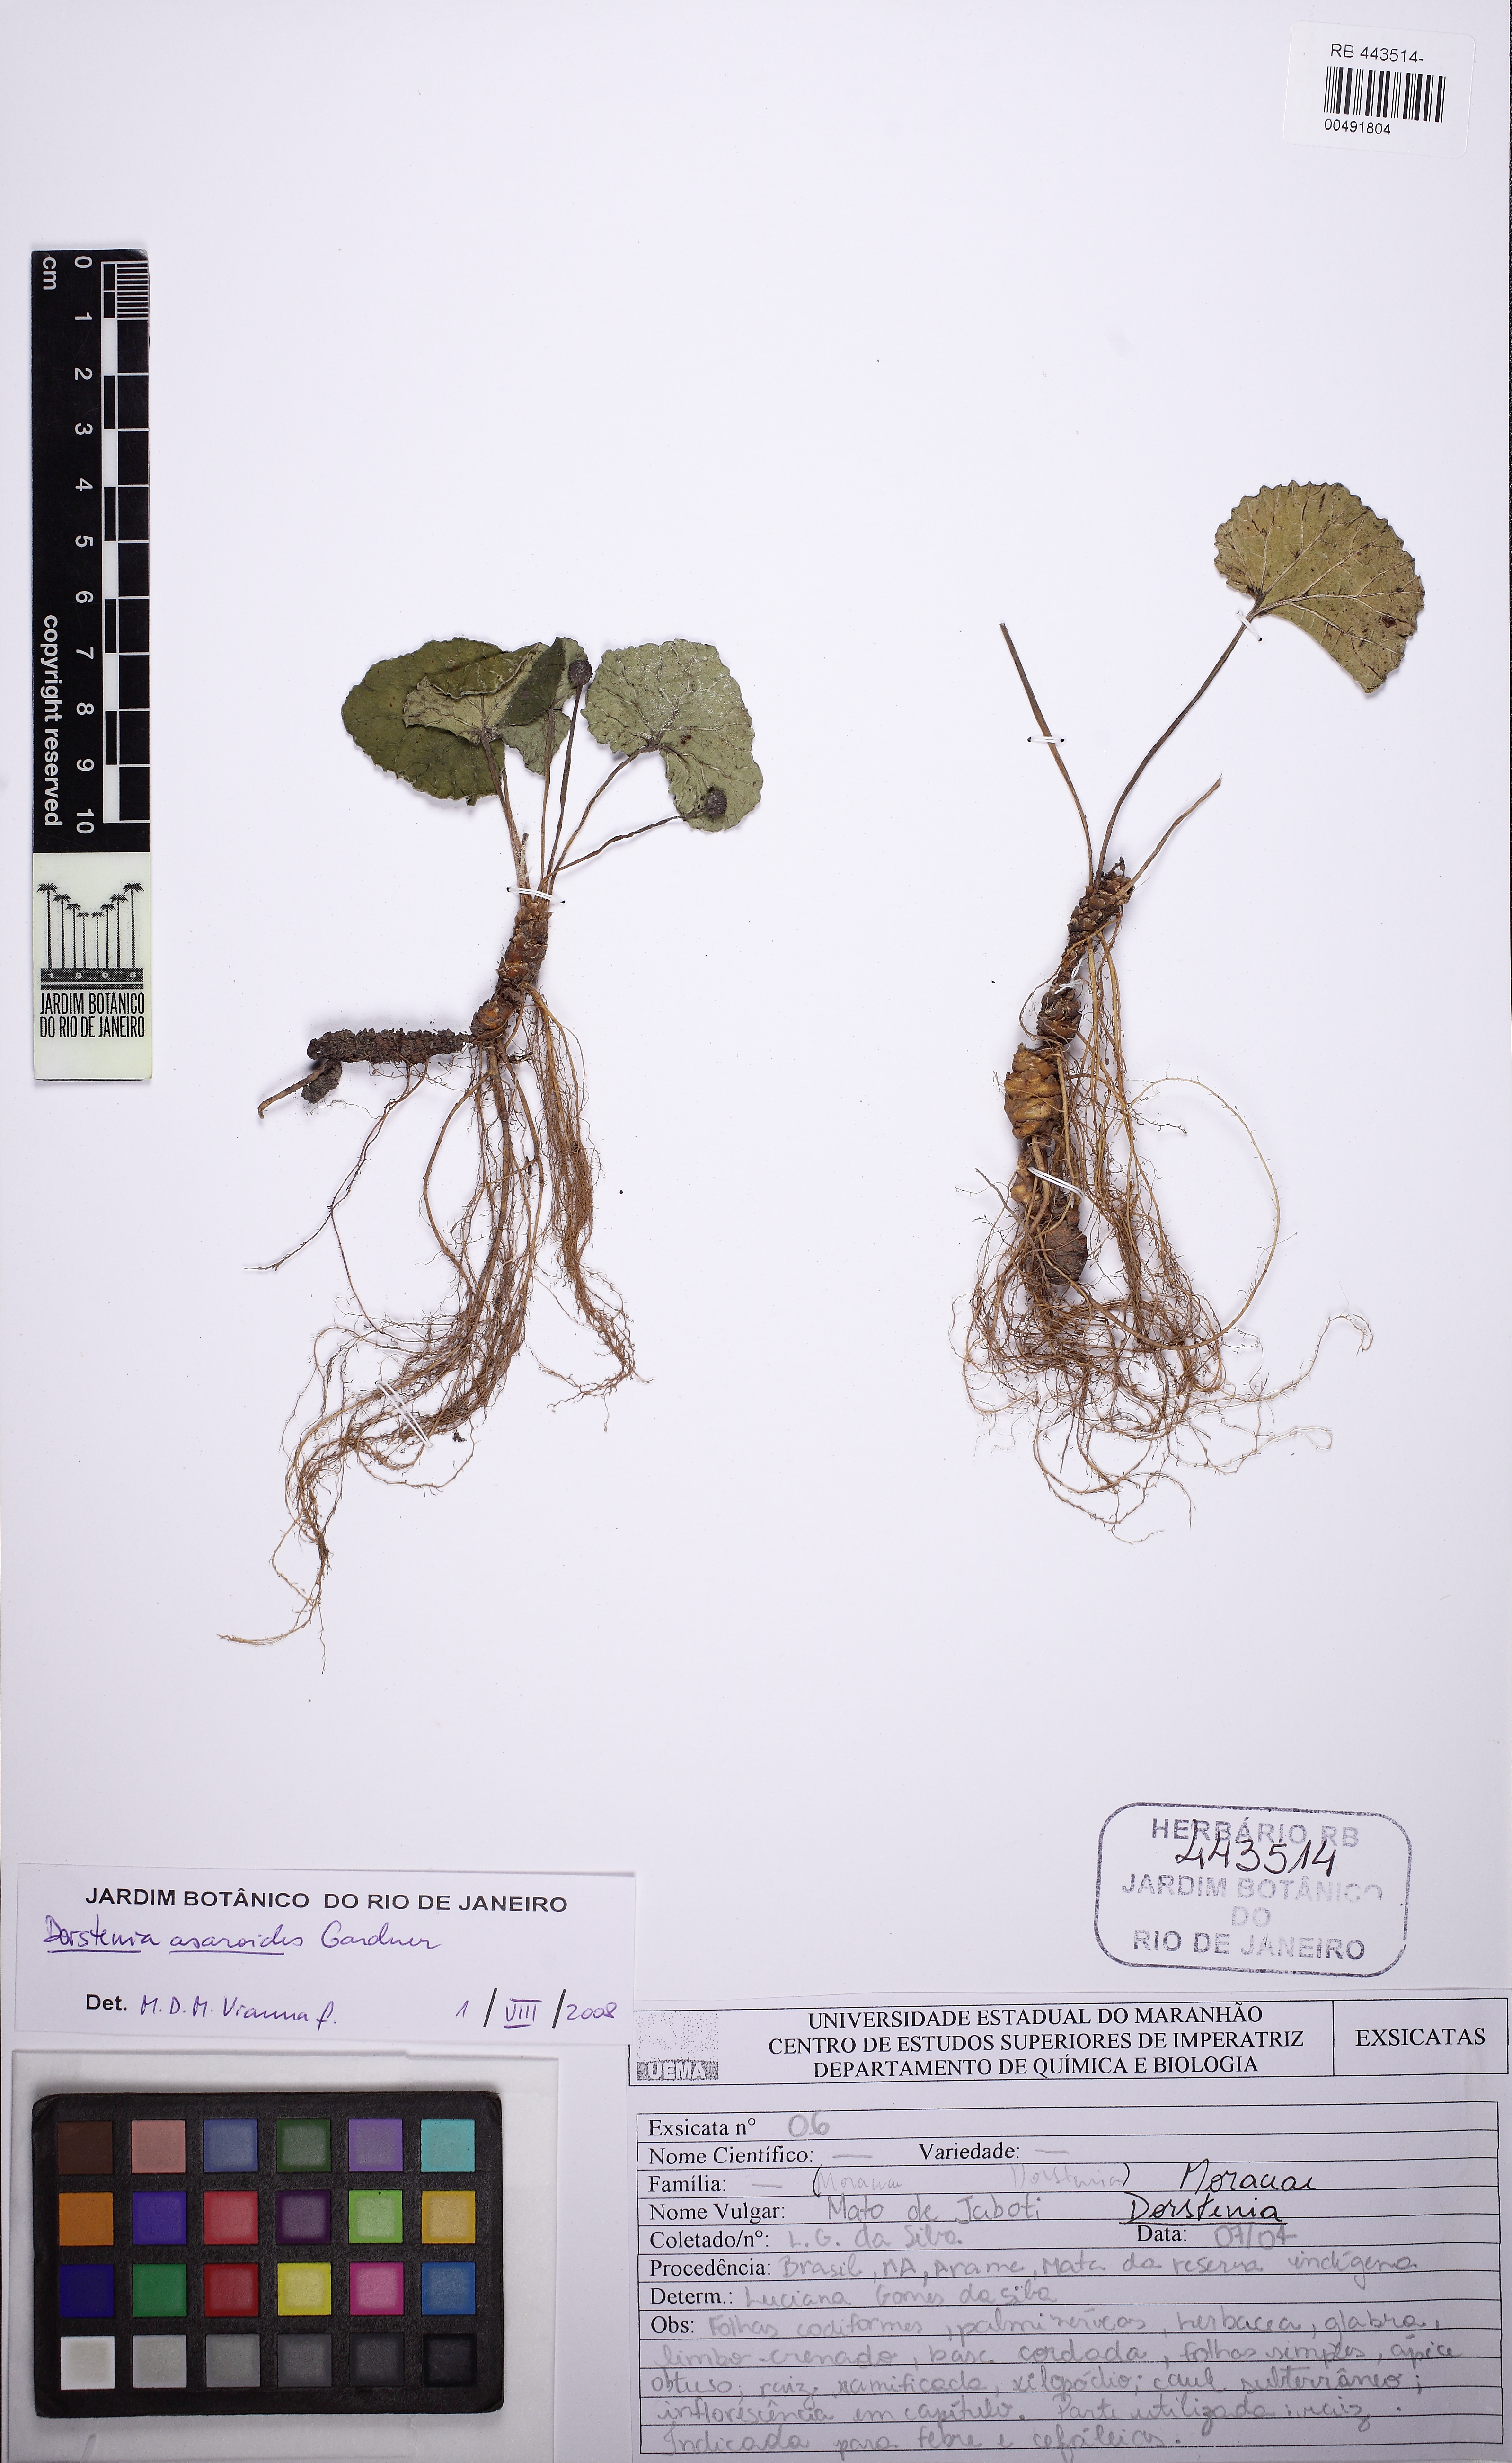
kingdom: Plantae
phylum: Tracheophyta
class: Magnoliopsida
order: Rosales
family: Moraceae
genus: Dorstenia
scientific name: Dorstenia cayapia
